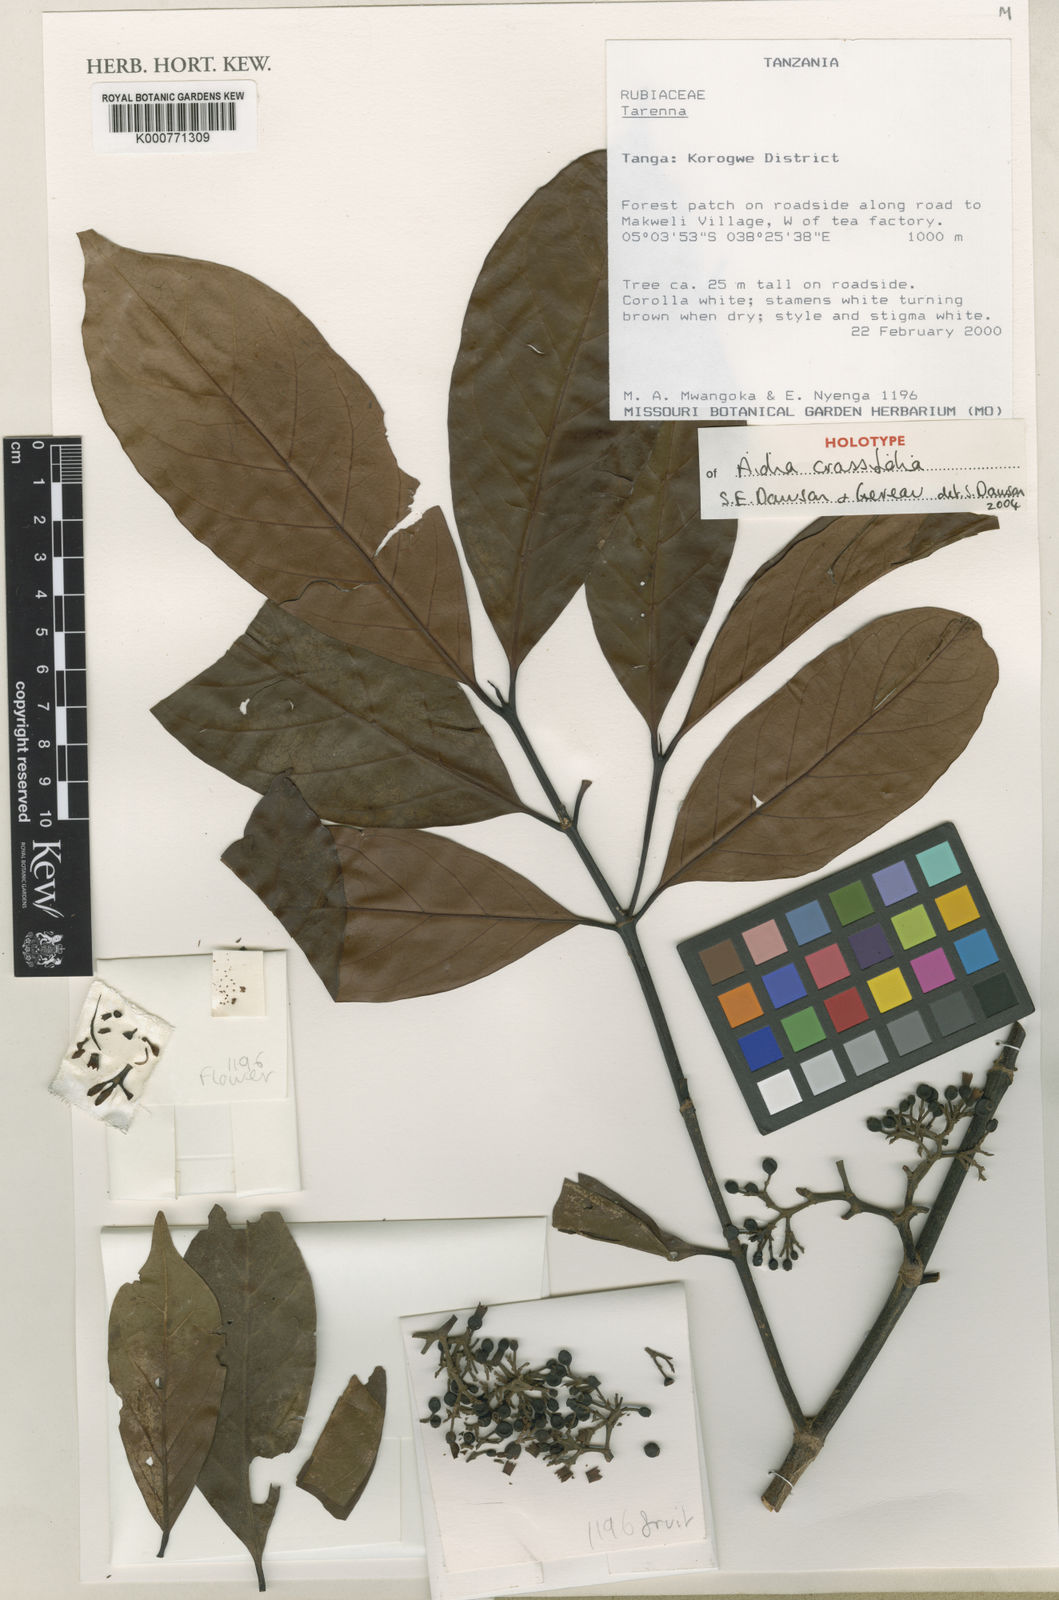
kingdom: Plantae
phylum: Tracheophyta
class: Magnoliopsida
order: Gentianales
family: Rubiaceae
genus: Aidia
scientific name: Aidia crassifolia
